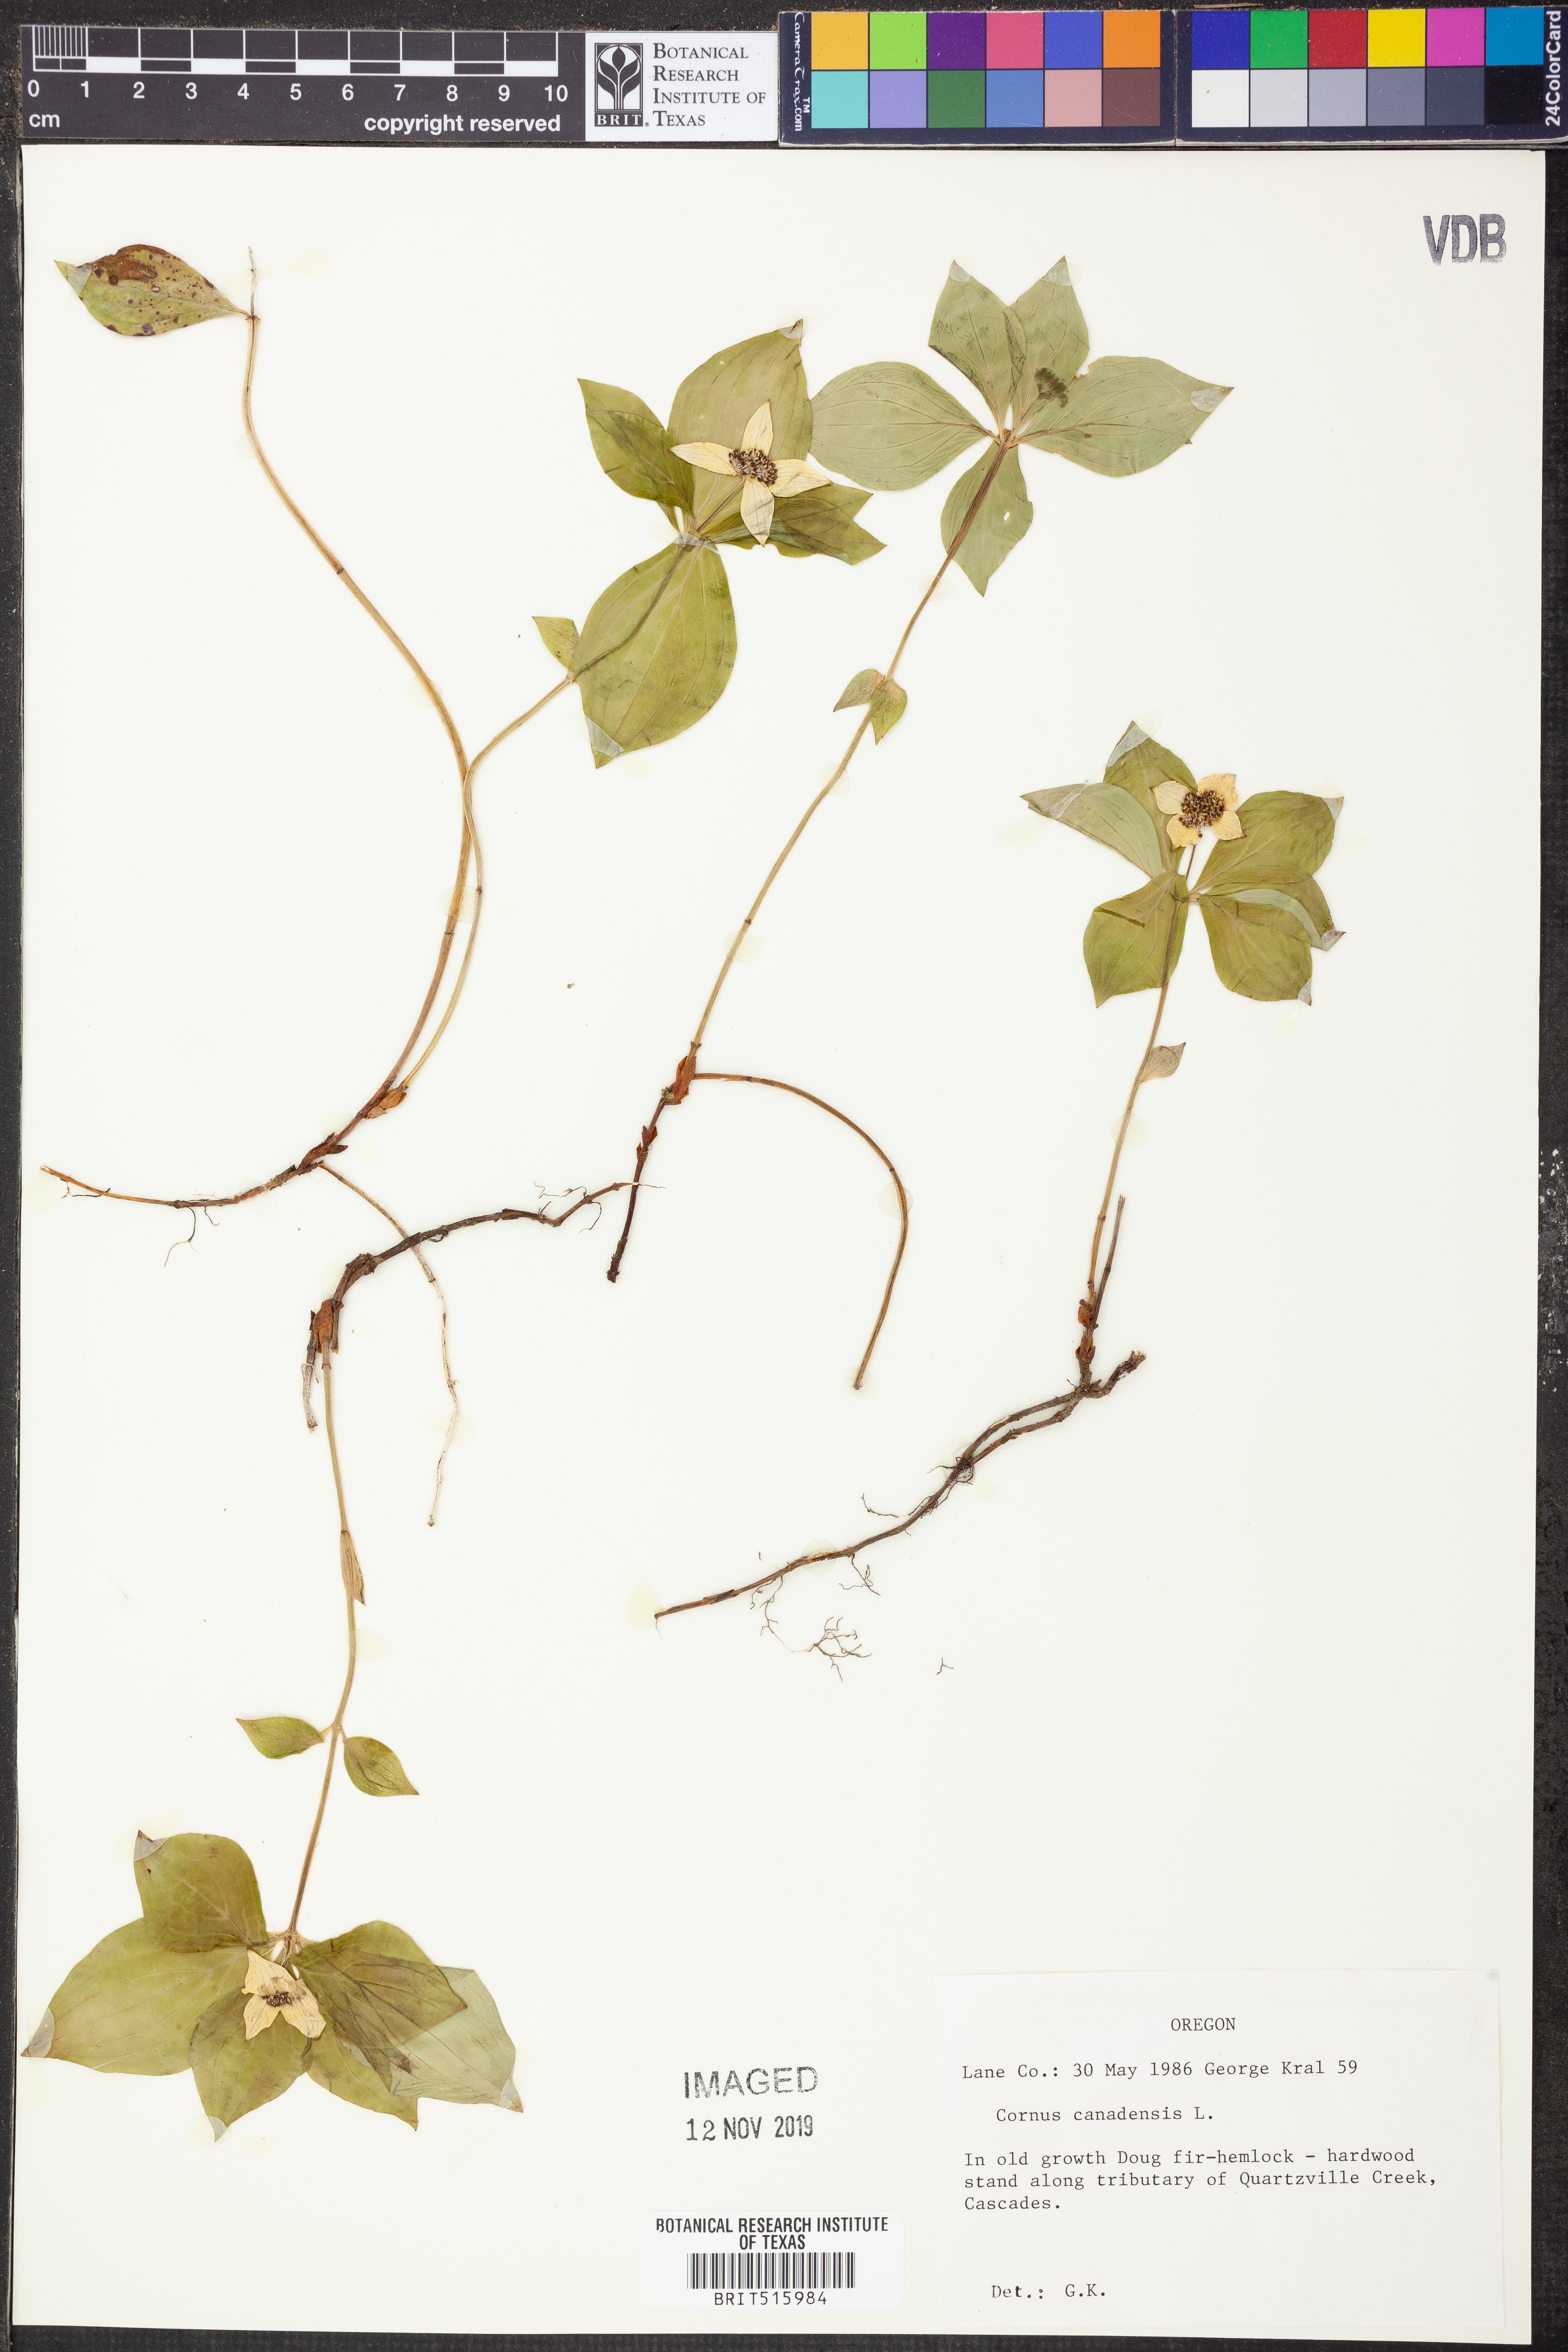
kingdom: Plantae
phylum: Tracheophyta
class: Magnoliopsida
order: Cornales
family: Cornaceae
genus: Cornus
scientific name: Cornus canadensis
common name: Creeping dogwood
